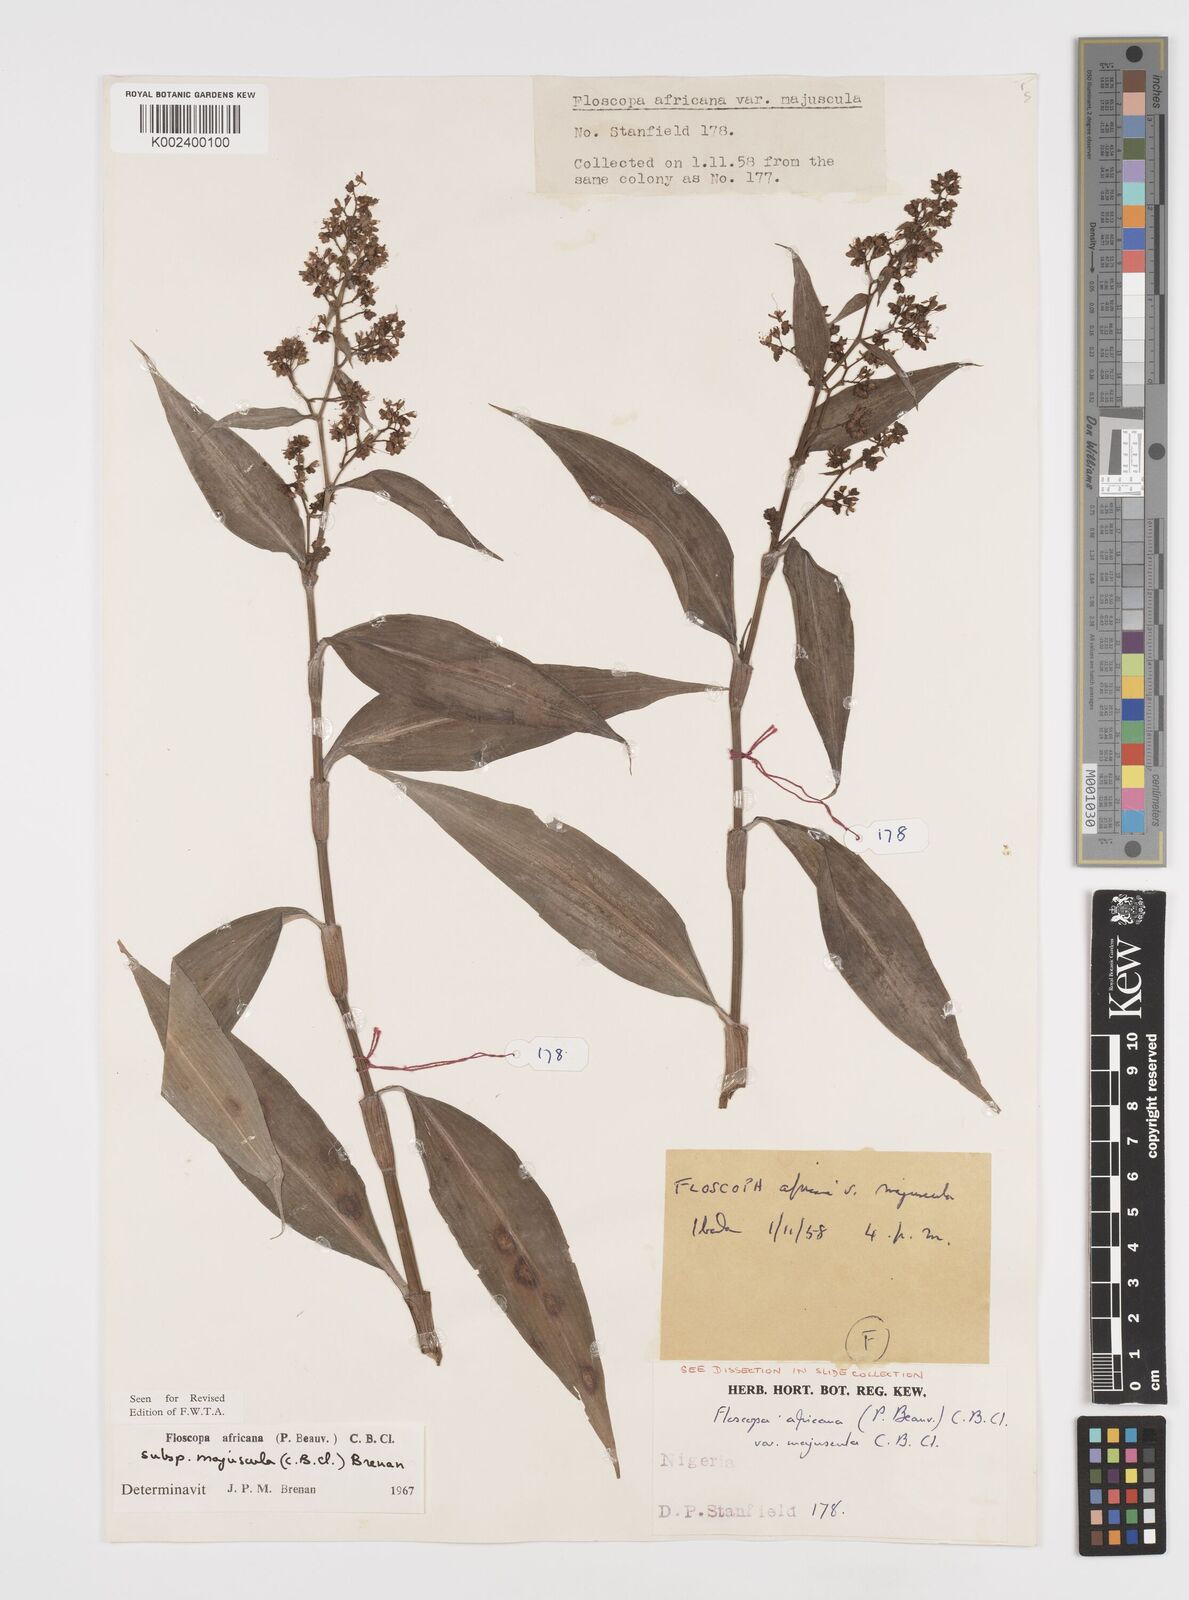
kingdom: Plantae
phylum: Tracheophyta
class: Liliopsida
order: Commelinales
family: Commelinaceae
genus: Floscopa
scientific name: Floscopa africana
